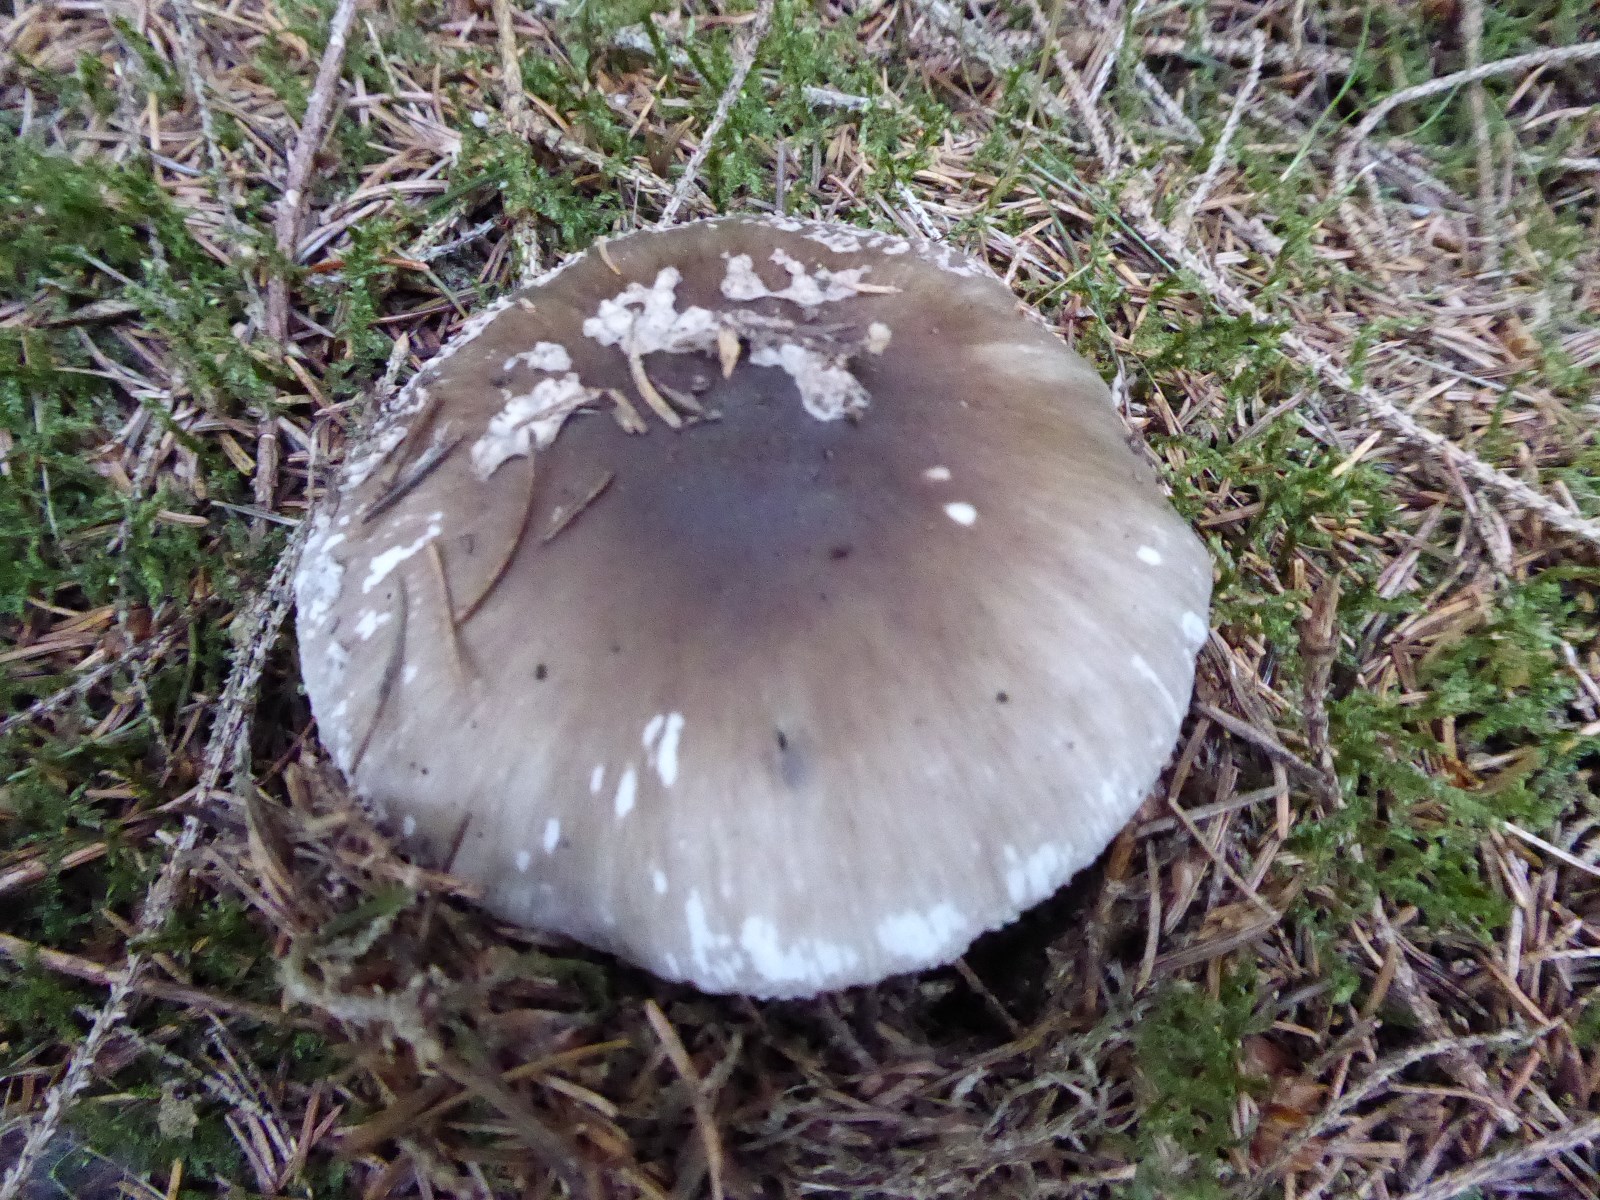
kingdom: Fungi
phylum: Basidiomycota
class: Agaricomycetes
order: Agaricales
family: Amanitaceae
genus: Amanita
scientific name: Amanita
